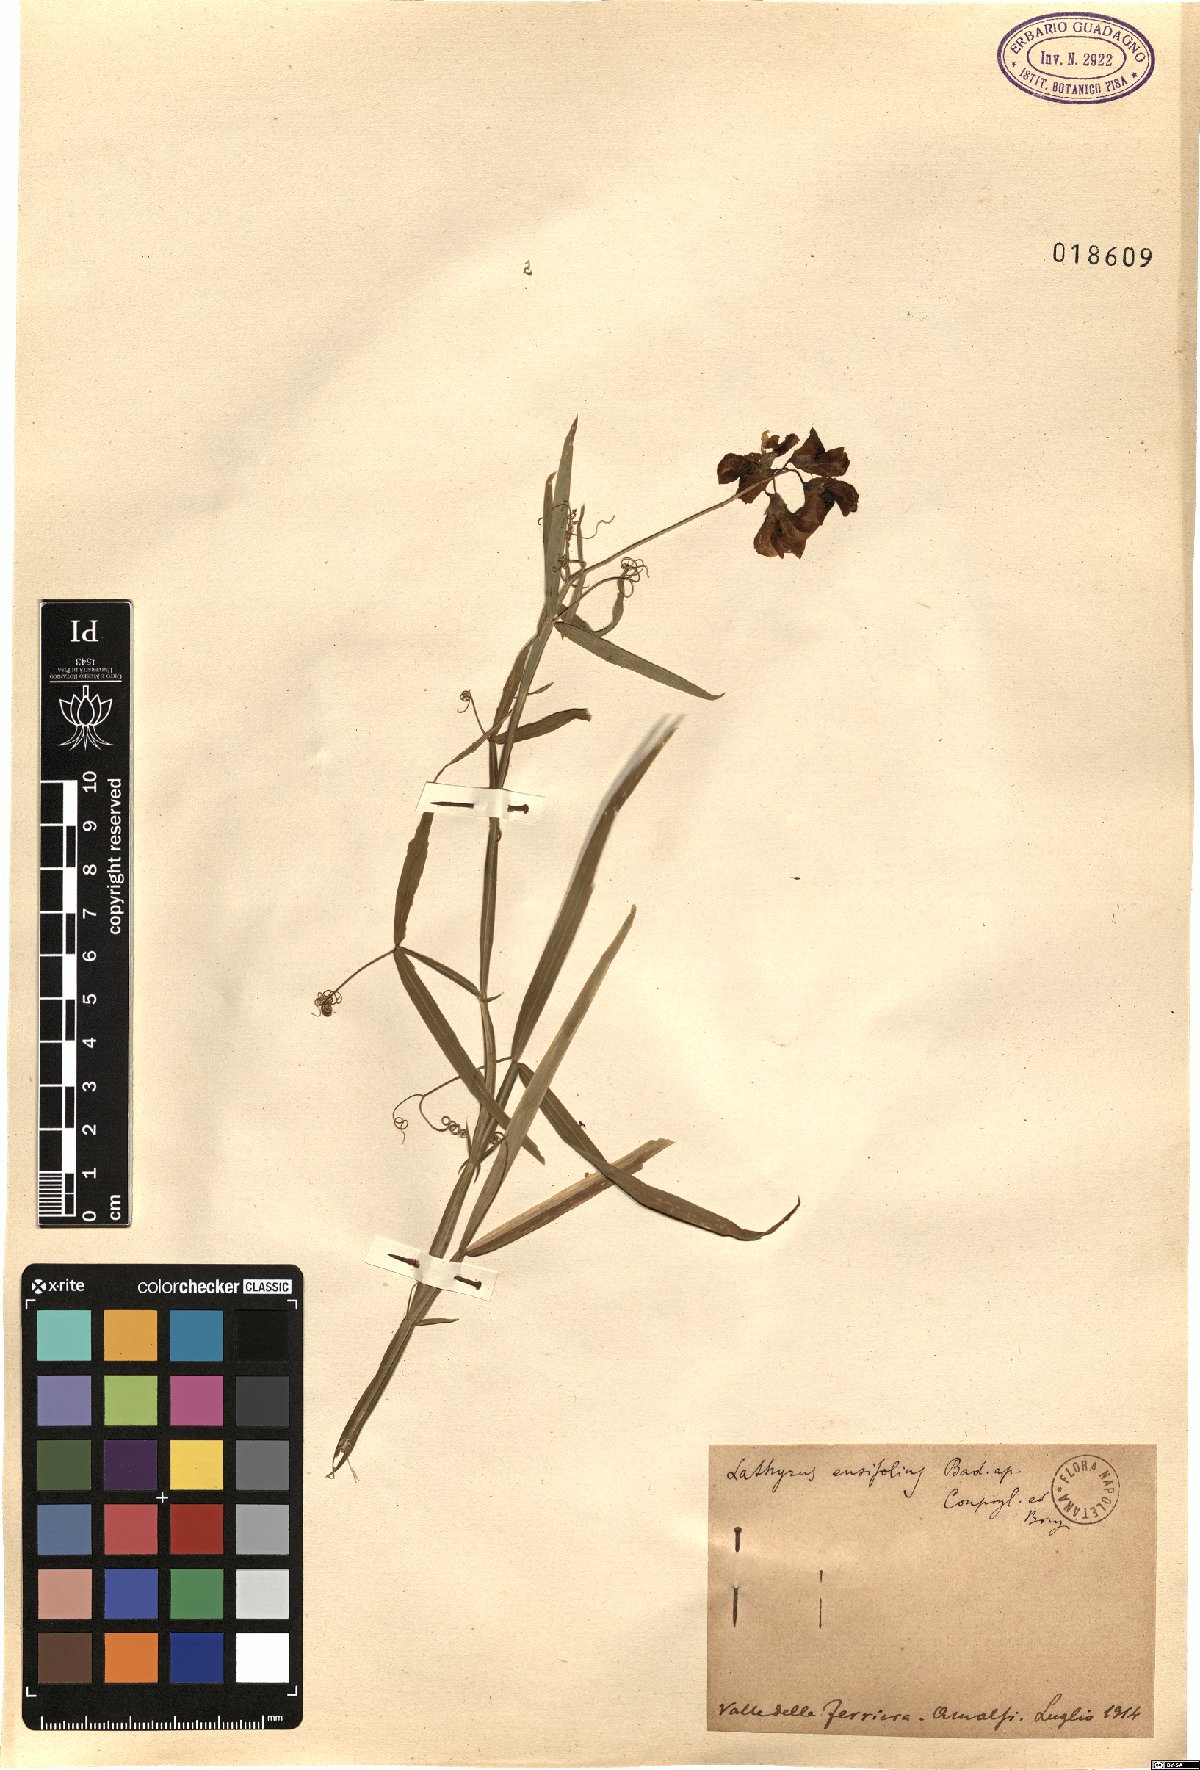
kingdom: Plantae
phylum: Tracheophyta
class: Magnoliopsida
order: Fabales
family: Fabaceae
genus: Lathyrus
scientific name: Lathyrus
